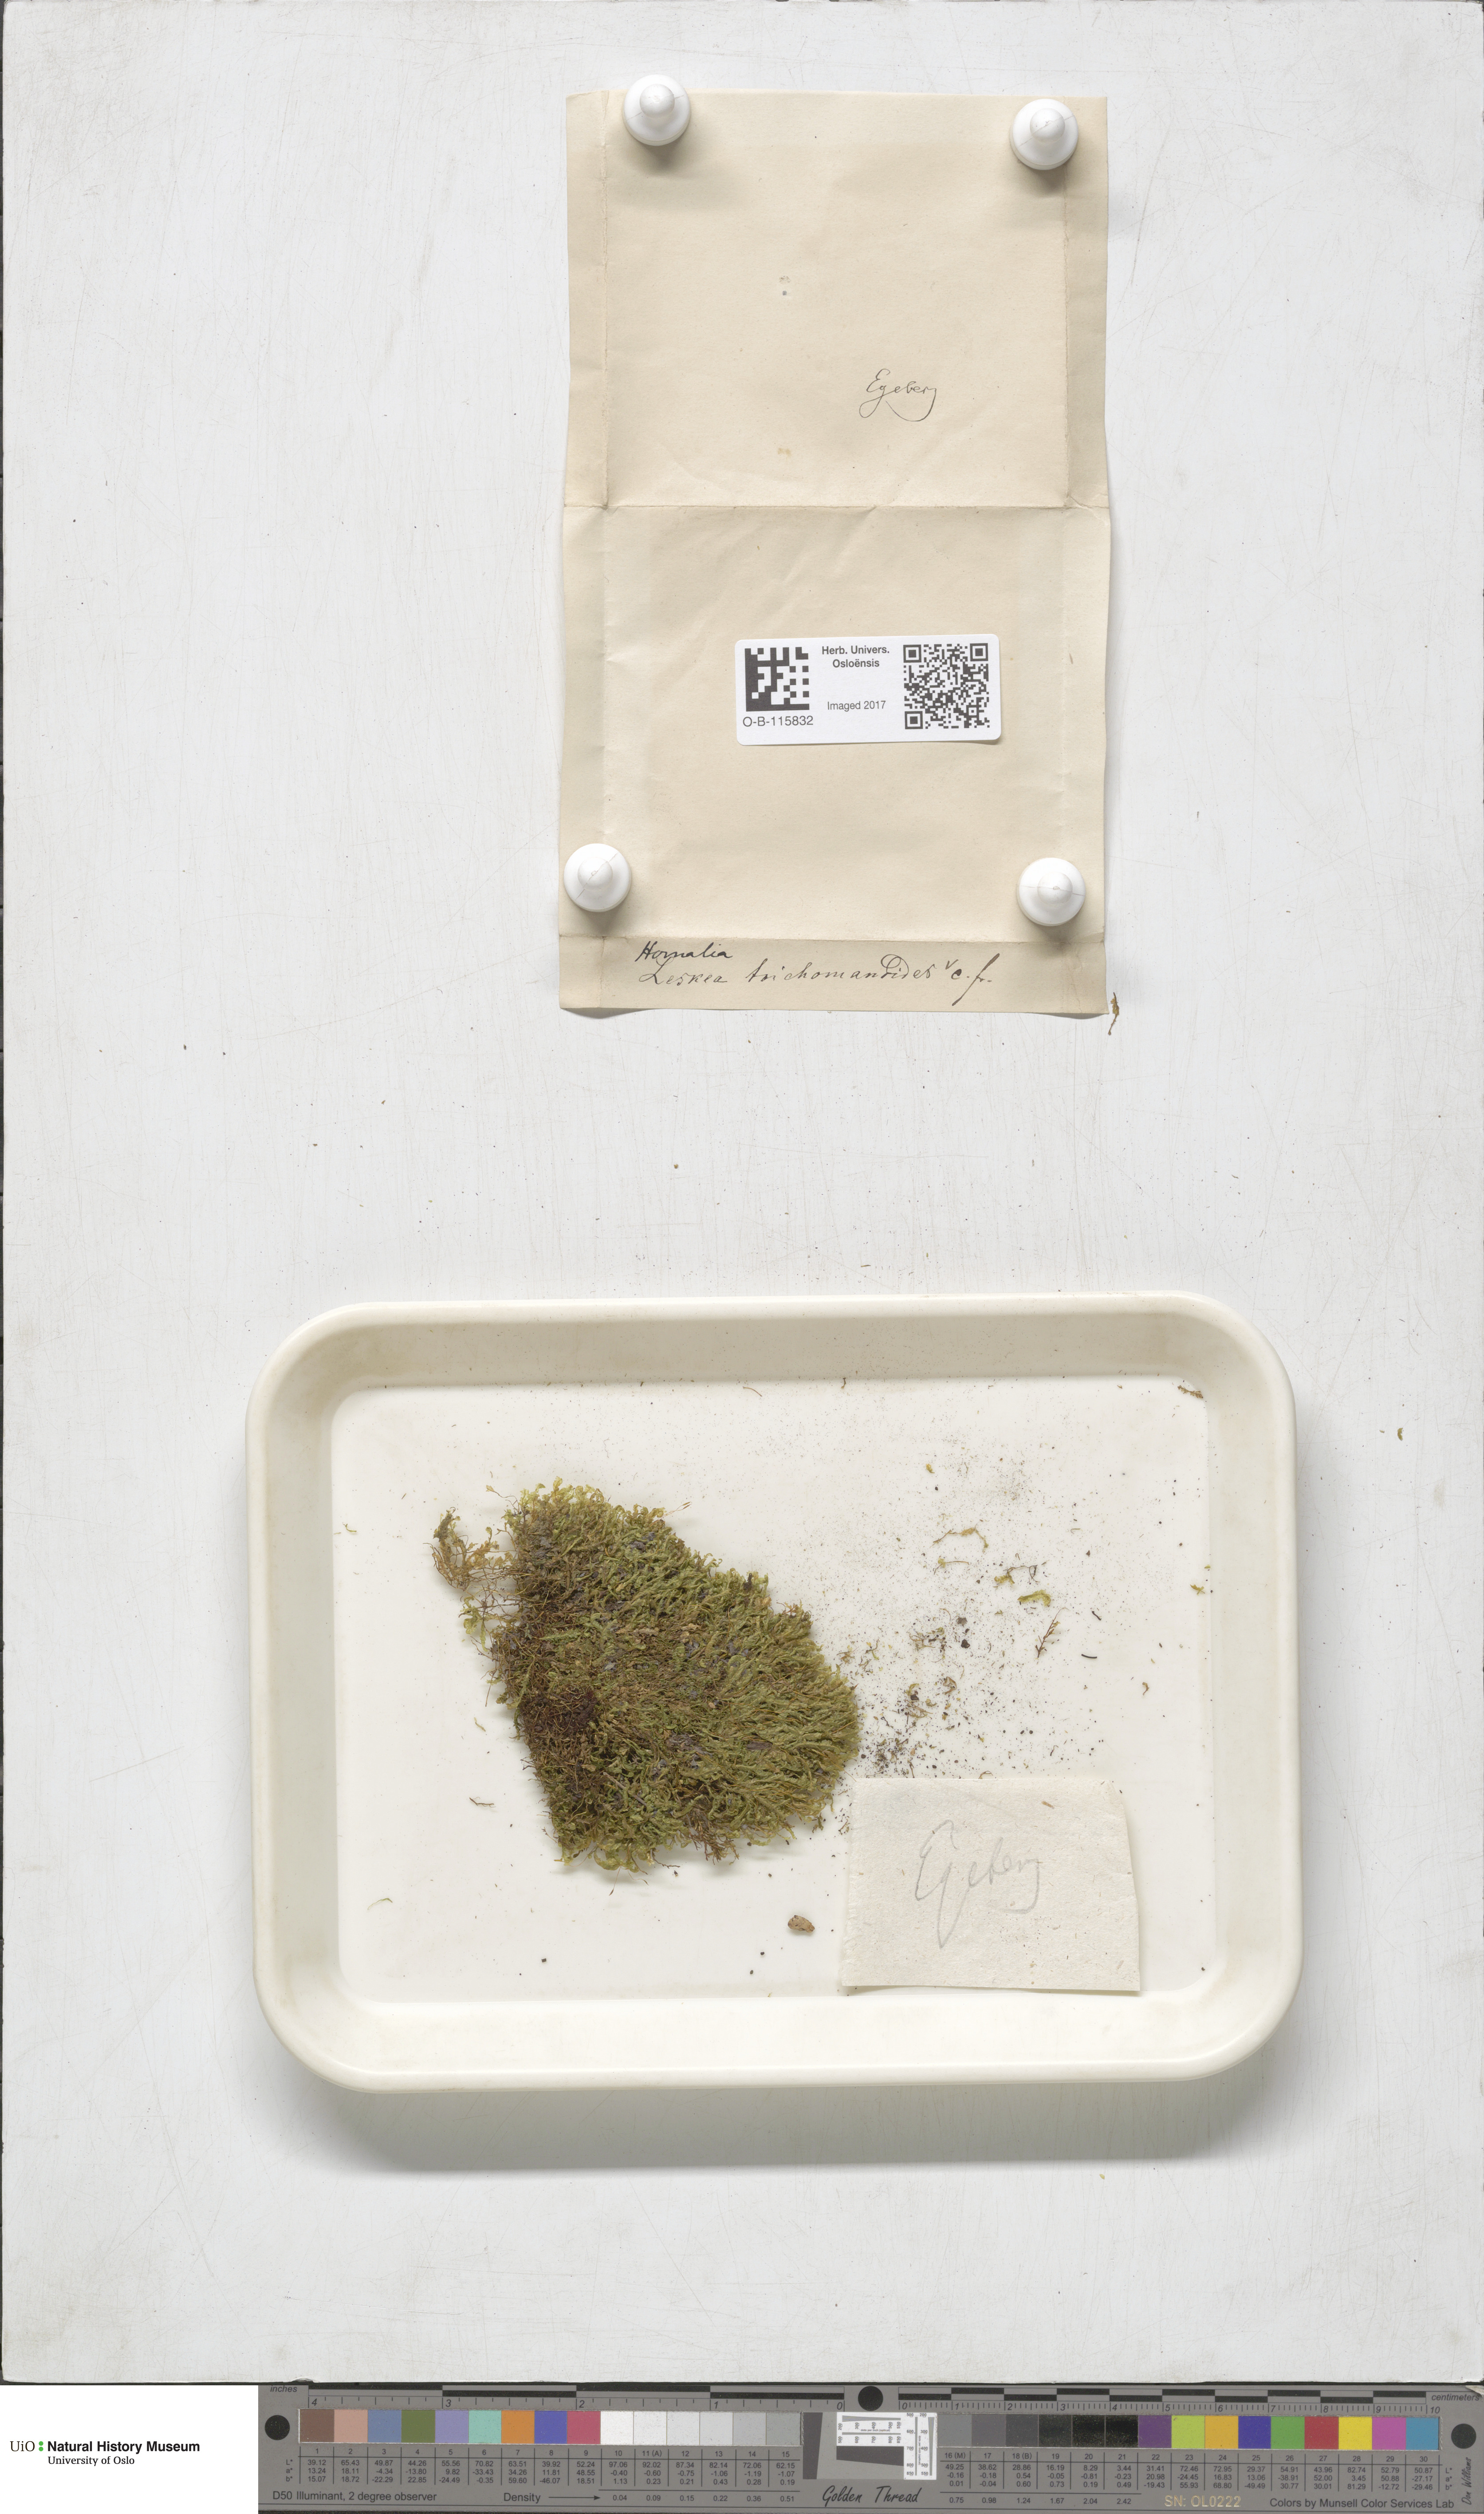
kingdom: Plantae
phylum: Bryophyta
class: Bryopsida
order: Hypnales
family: Neckeraceae
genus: Homalia
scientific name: Homalia trichomanoides
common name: Lime homalia moss
